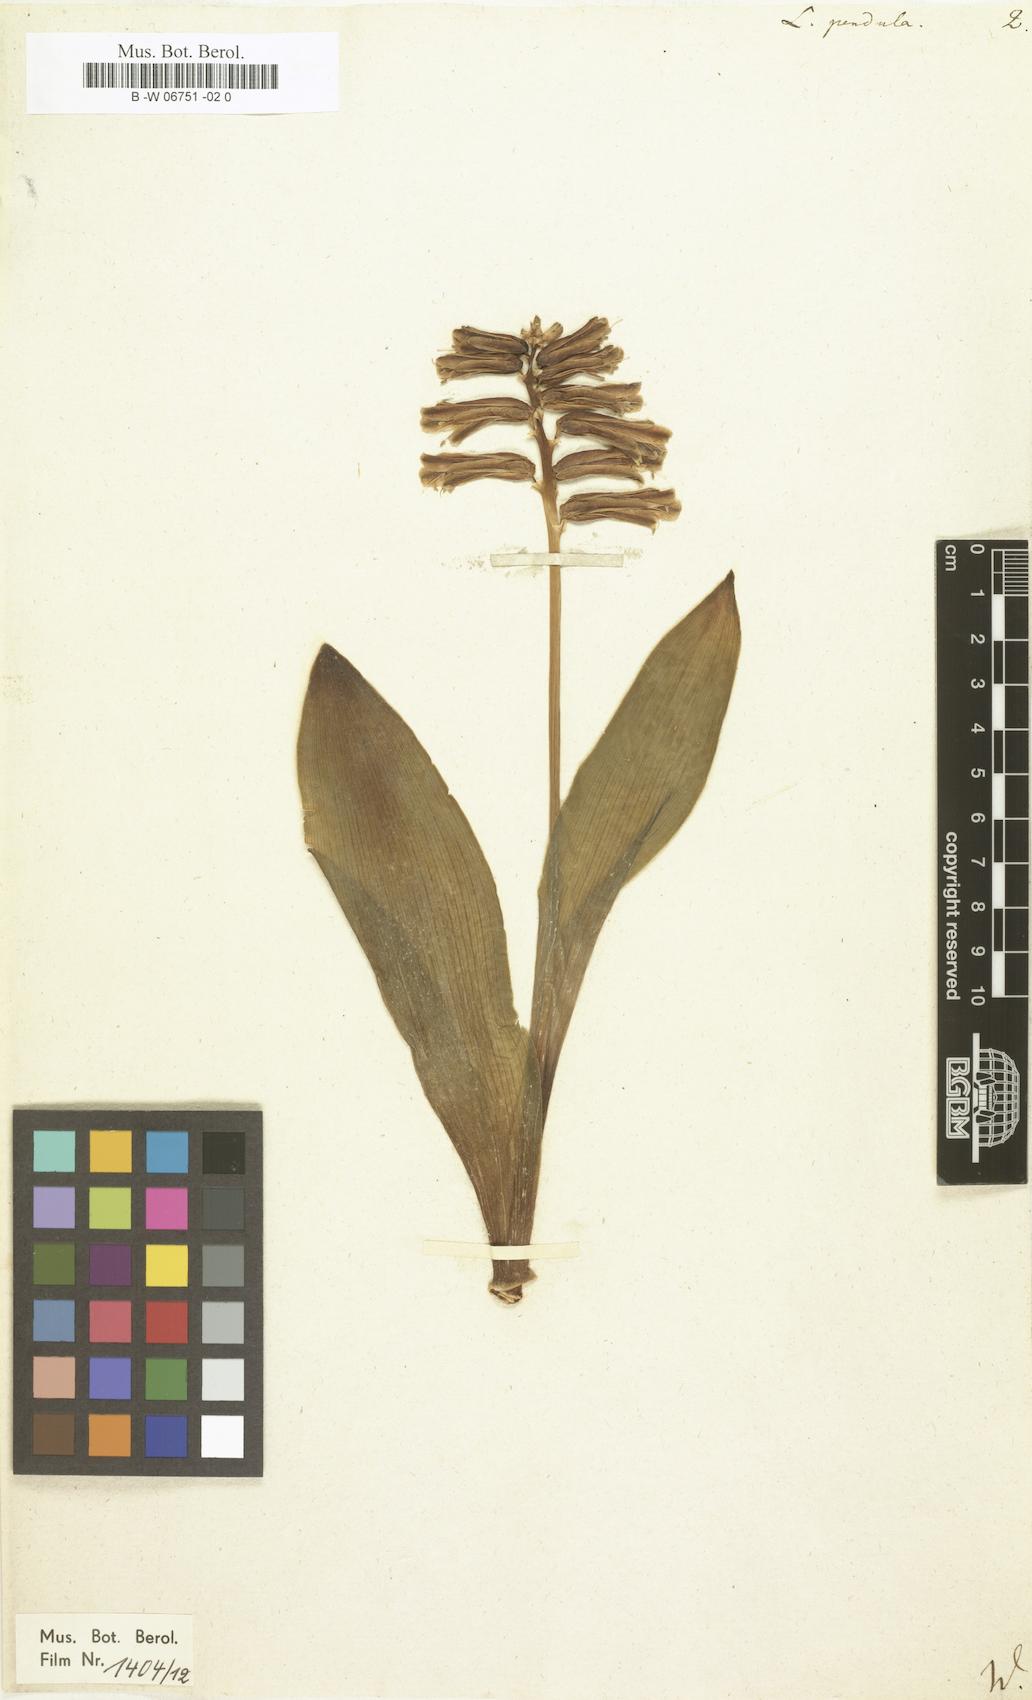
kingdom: Plantae
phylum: Tracheophyta
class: Liliopsida
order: Asparagales
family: Asparagaceae
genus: Lachenalia
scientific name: Lachenalia bulbifera
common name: Red lachenalia
